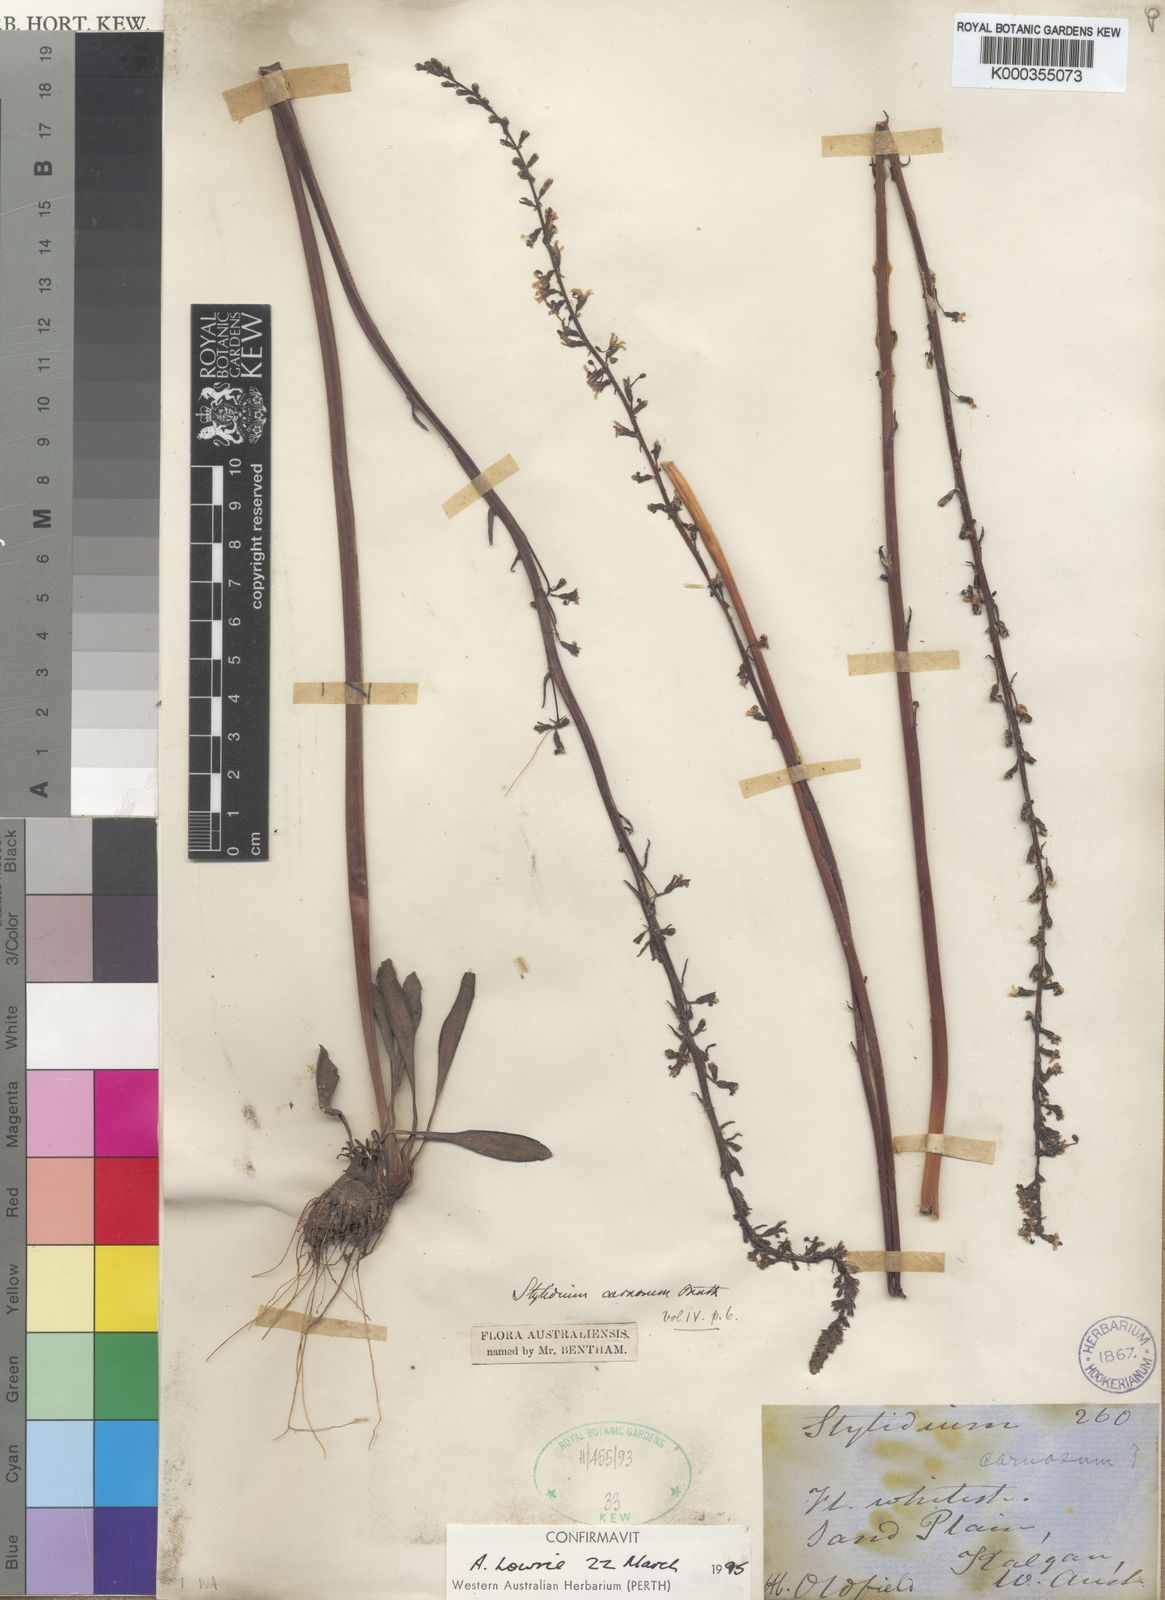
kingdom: Plantae
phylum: Tracheophyta
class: Magnoliopsida
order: Asterales
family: Stylidiaceae
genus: Stylidium
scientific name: Stylidium carnosum
